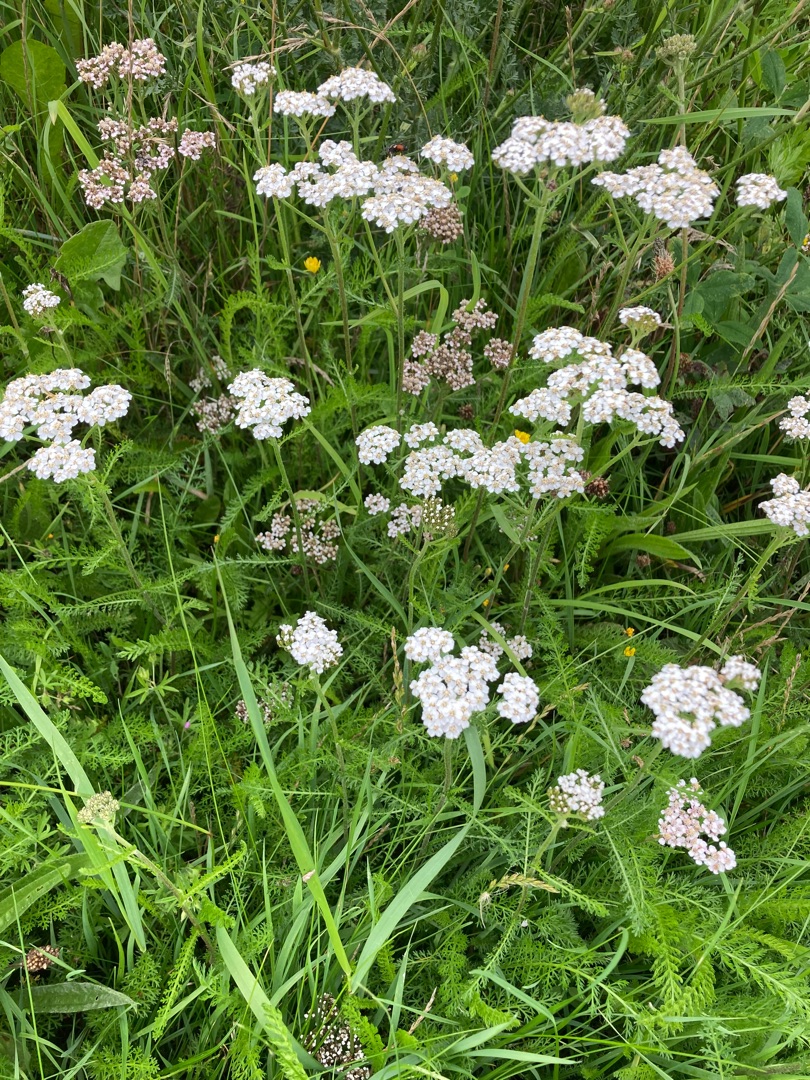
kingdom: Plantae
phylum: Tracheophyta
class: Magnoliopsida
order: Asterales
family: Asteraceae
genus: Achillea
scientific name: Achillea millefolium
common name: Almindelig røllike
